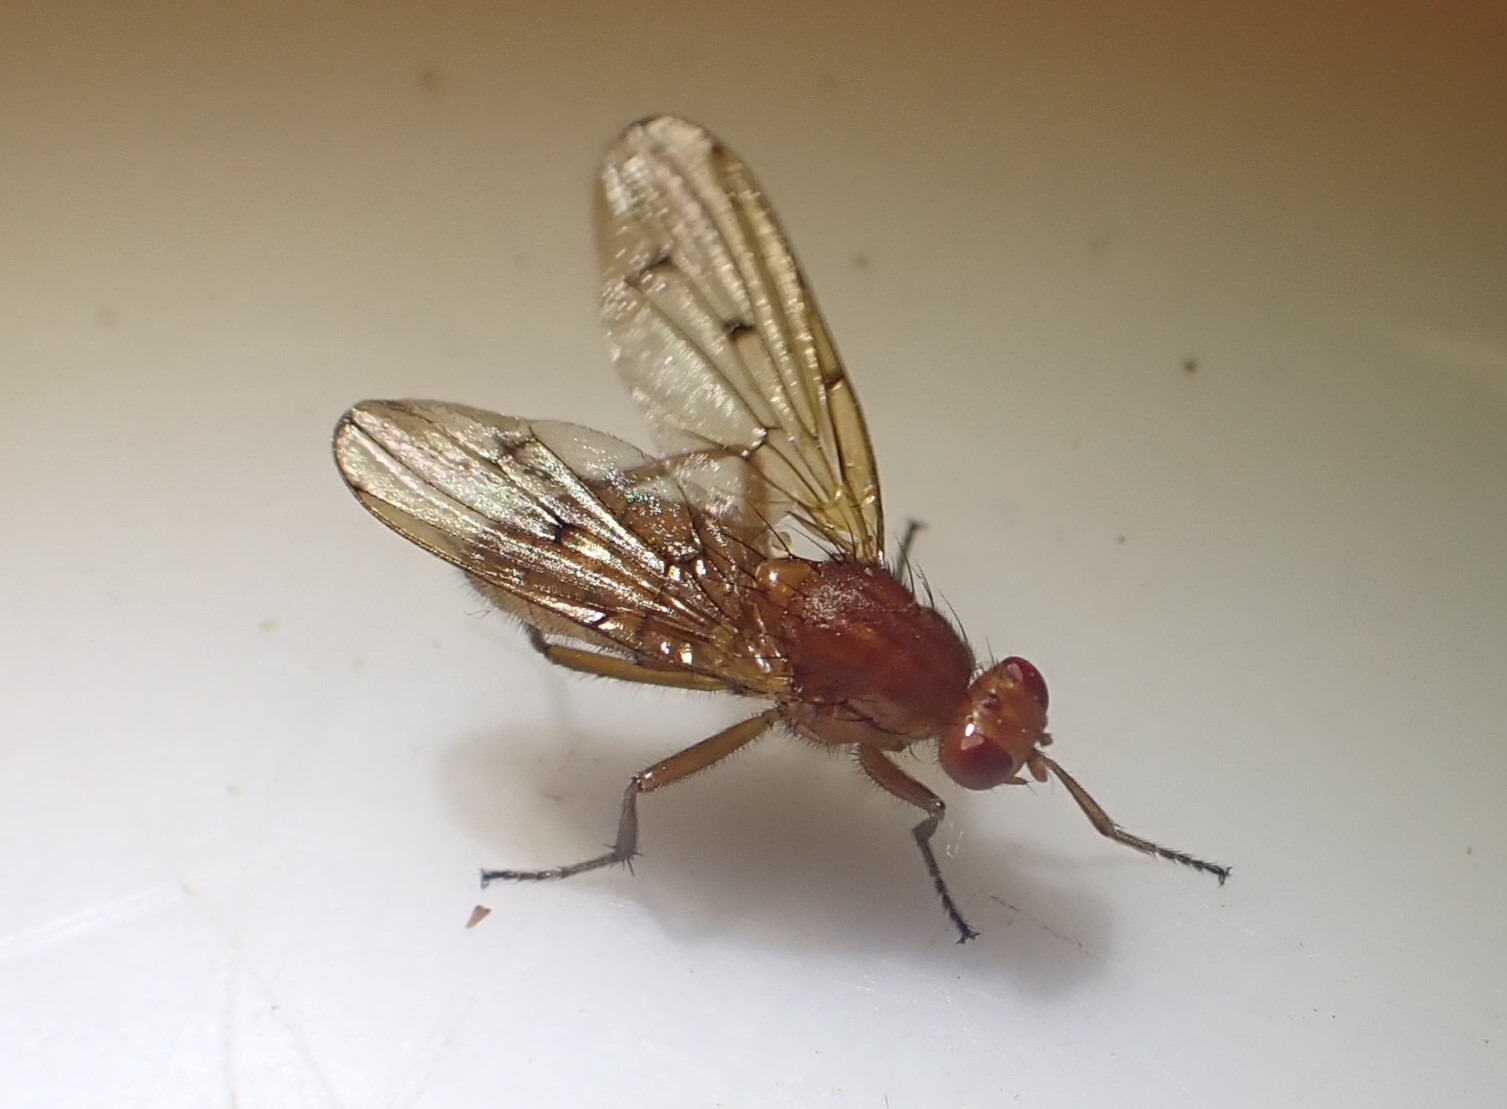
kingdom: Animalia
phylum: Arthropoda
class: Insecta
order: Diptera
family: Dryomyzidae
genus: Dryomyza
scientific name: Dryomyza anilis
